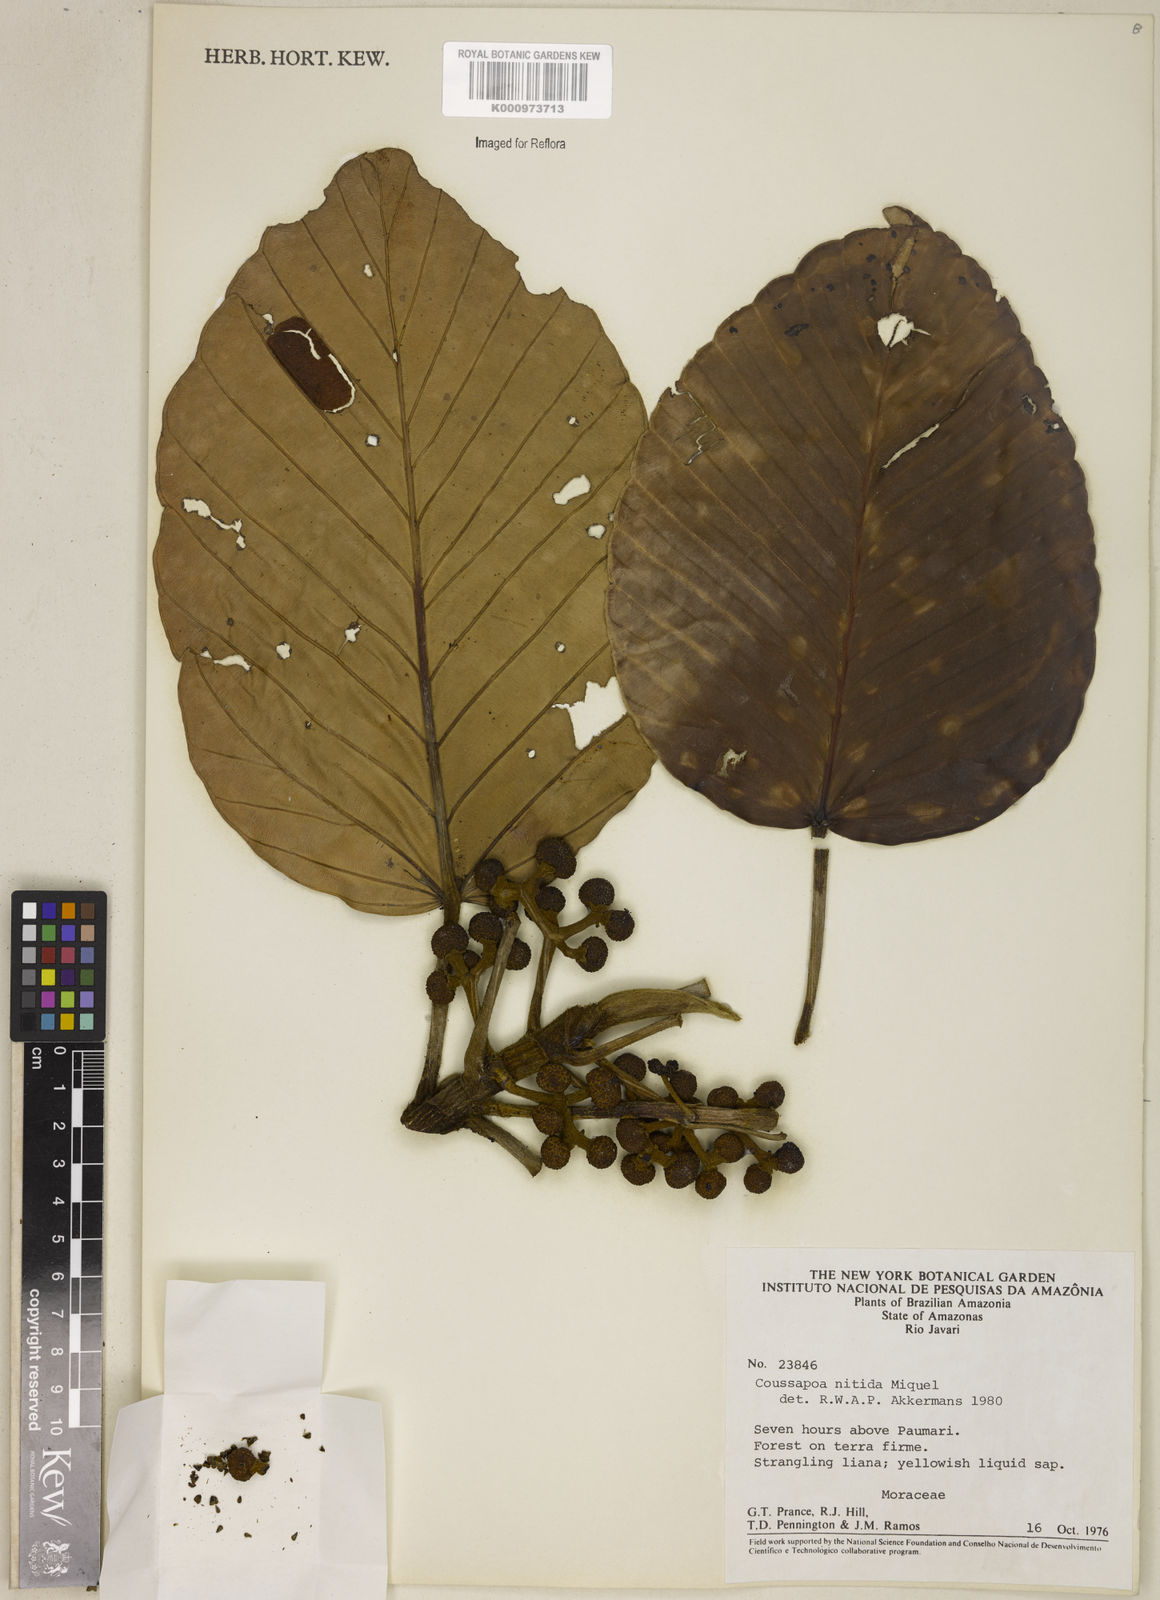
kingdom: Plantae
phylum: Tracheophyta
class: Magnoliopsida
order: Rosales
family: Urticaceae
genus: Coussapoa
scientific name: Coussapoa nitida
